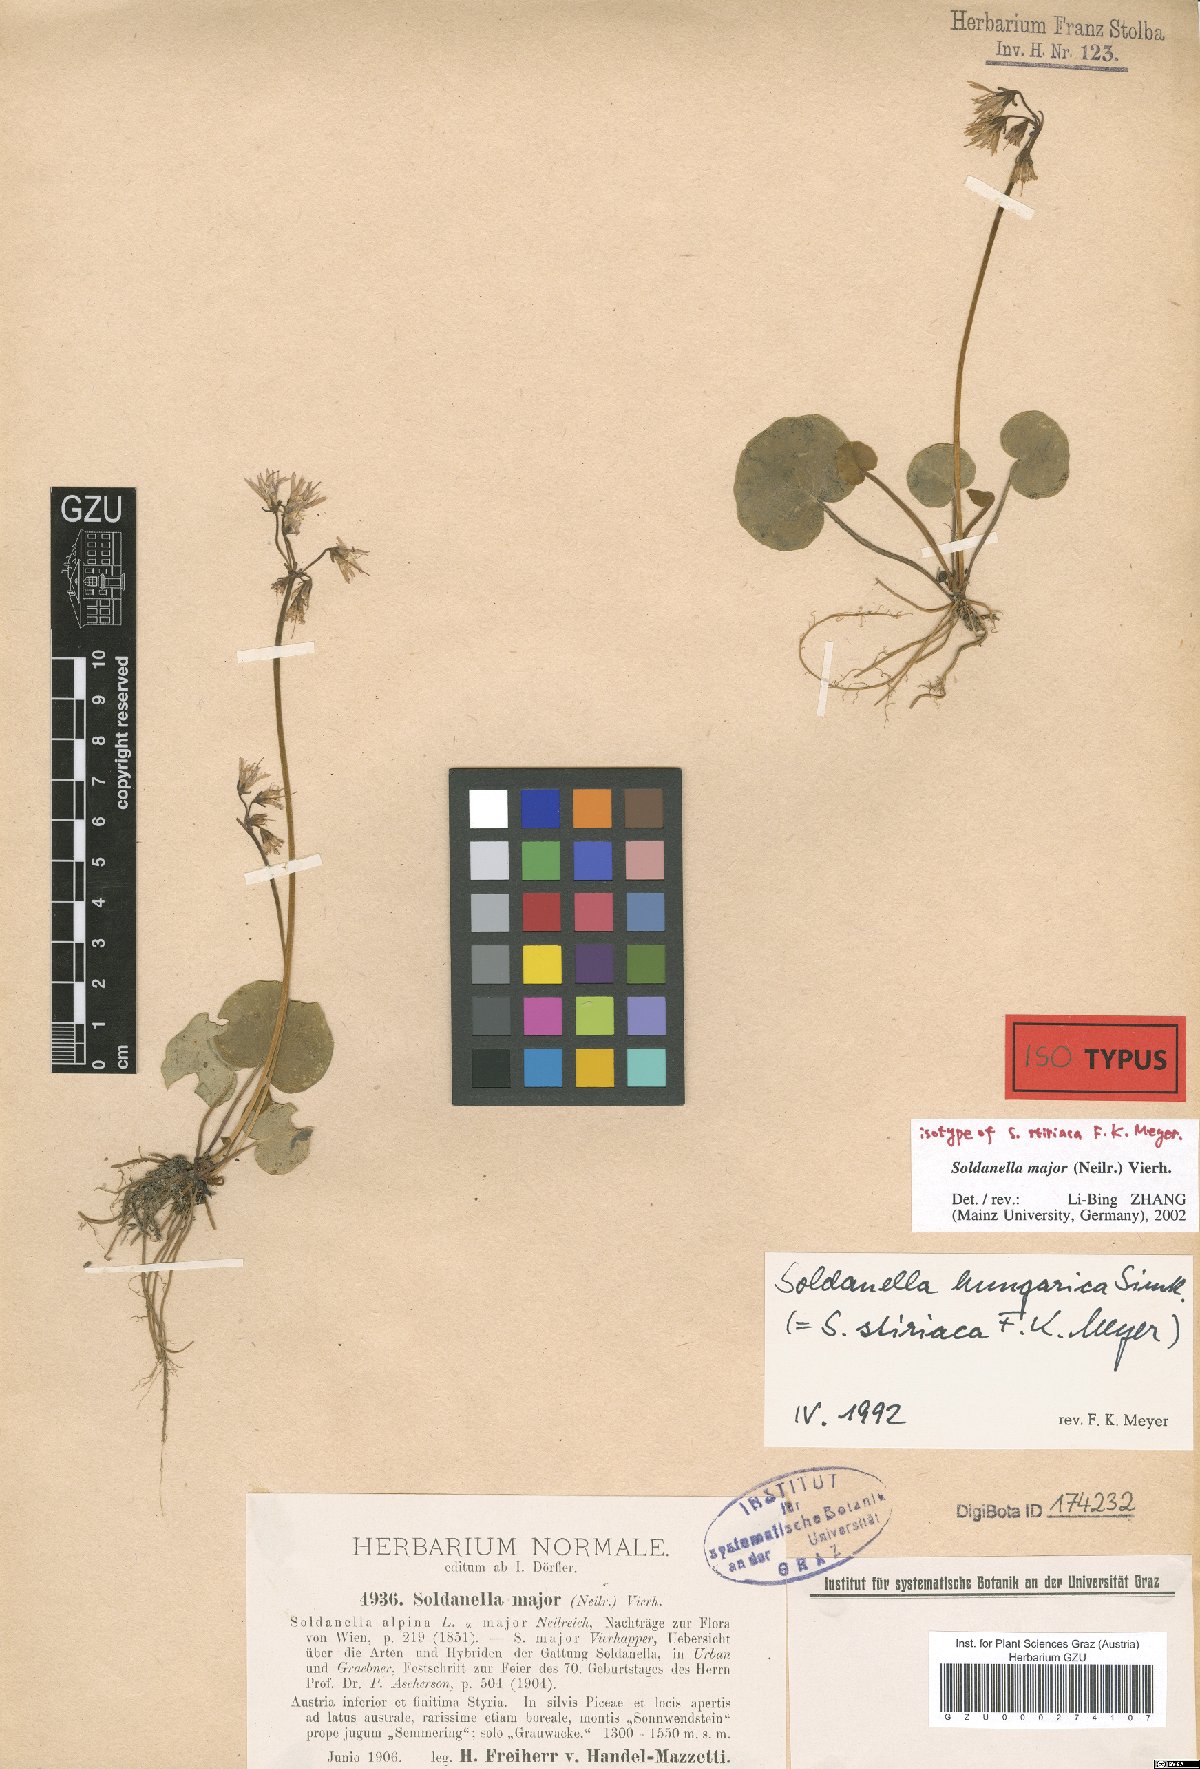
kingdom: Plantae
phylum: Tracheophyta
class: Magnoliopsida
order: Ericales
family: Primulaceae
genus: Soldanella
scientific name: Soldanella major
